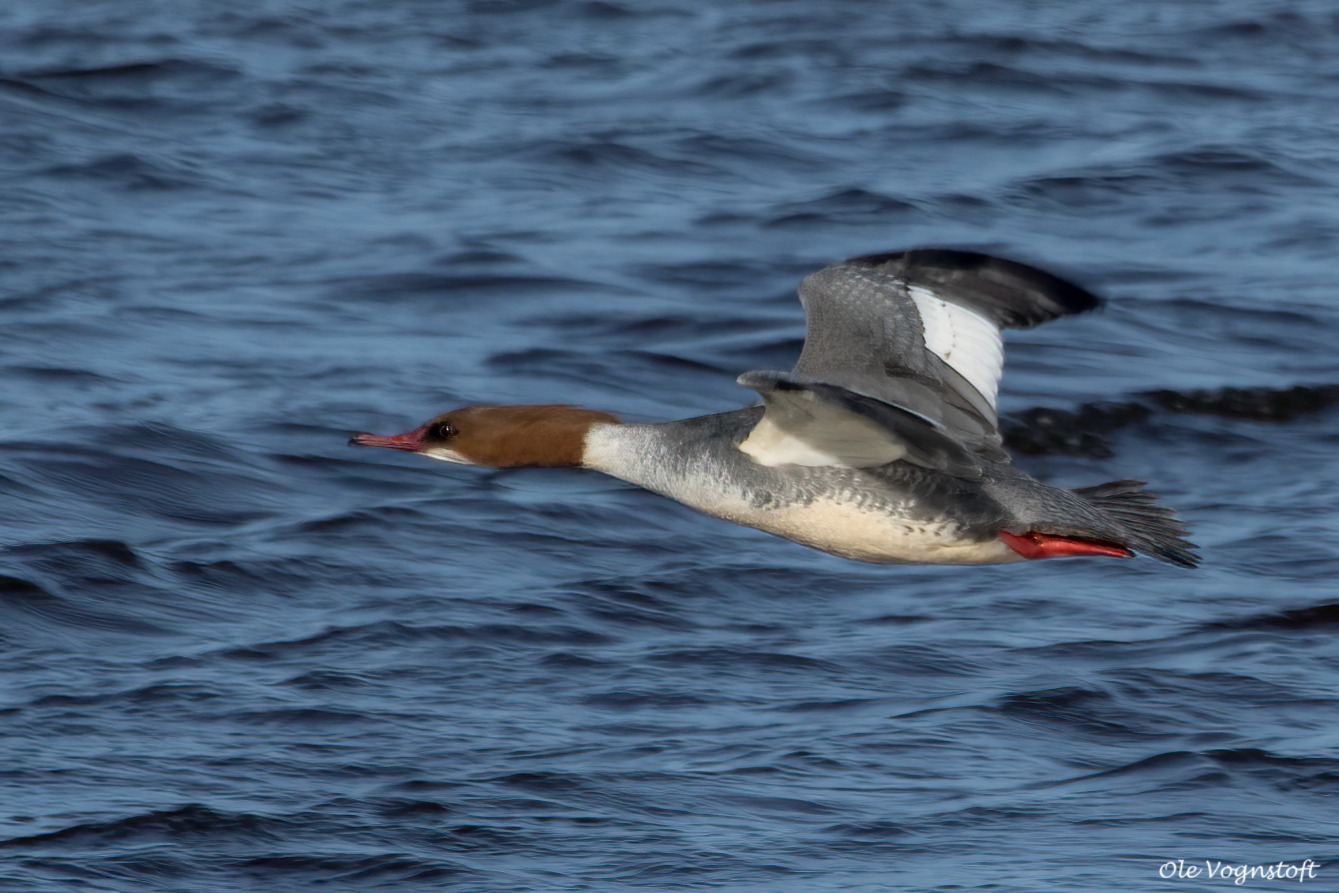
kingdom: Animalia
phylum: Chordata
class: Aves
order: Anseriformes
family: Anatidae
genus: Mergus
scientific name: Mergus merganser
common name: Stor skallesluger
